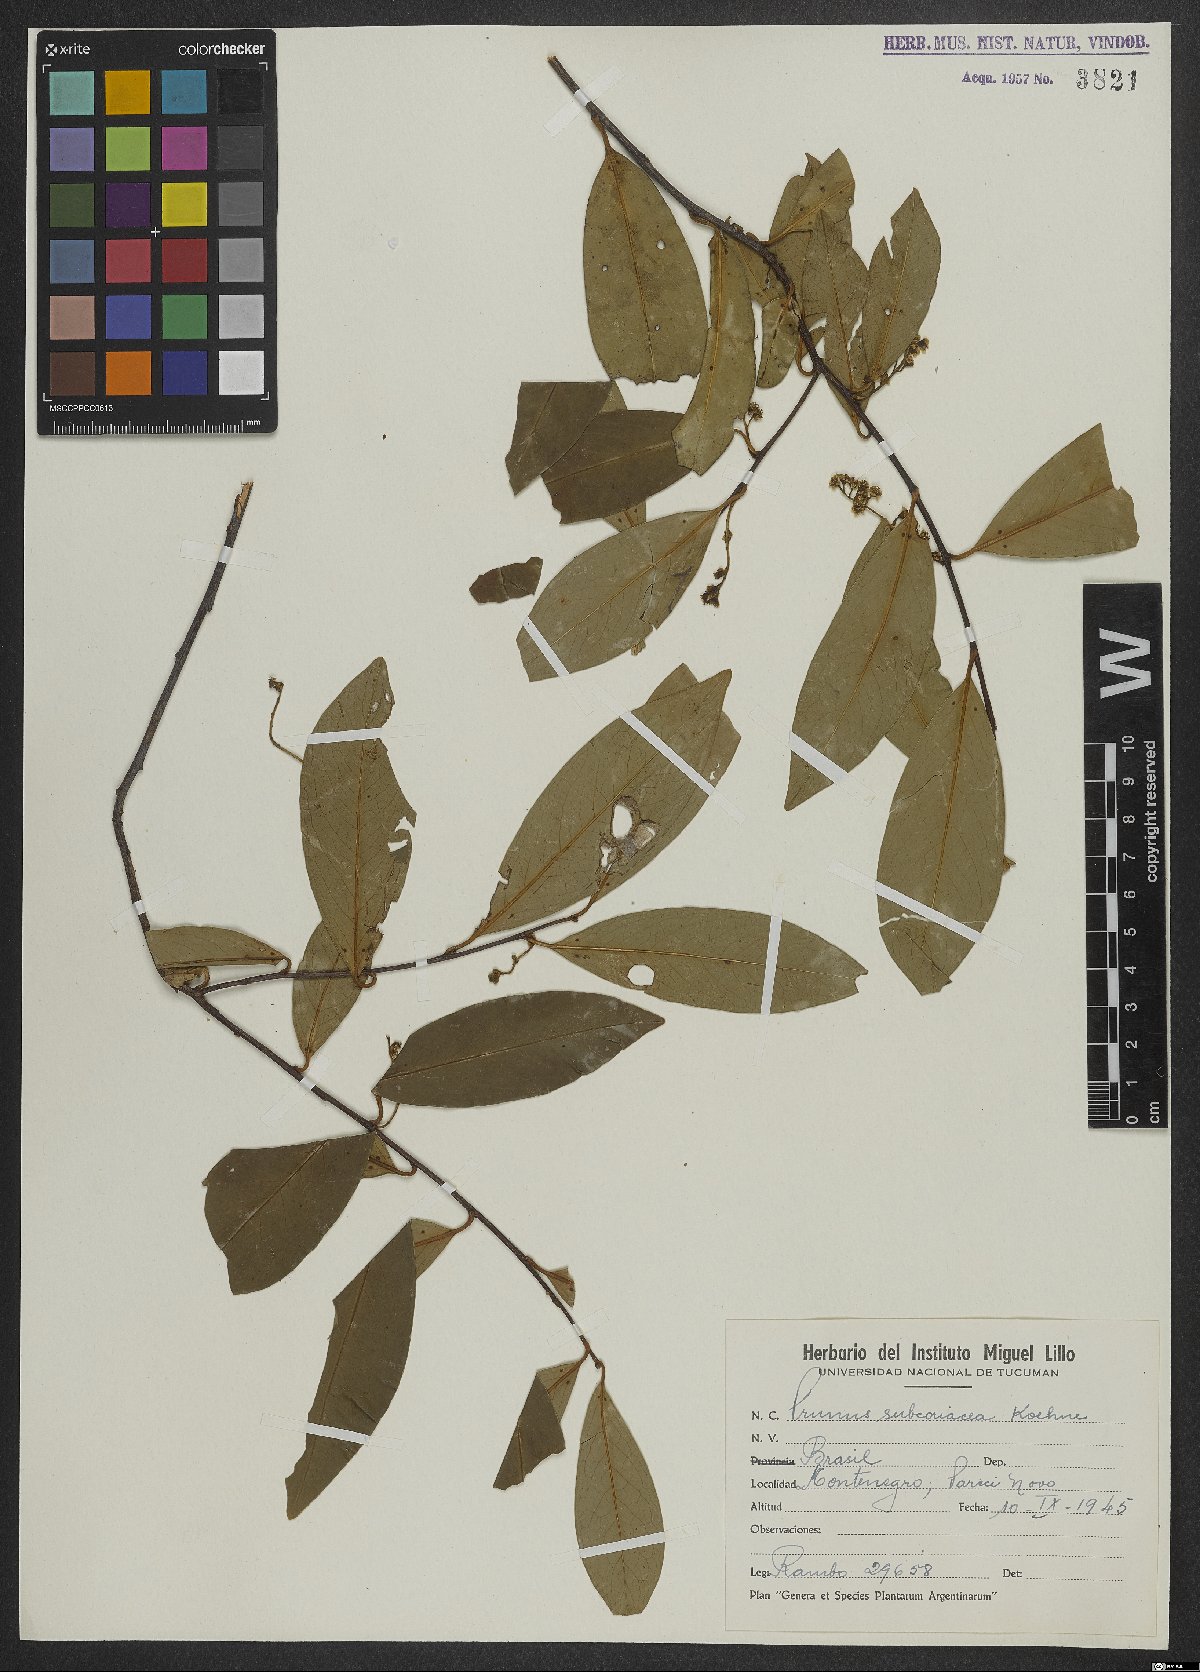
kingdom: Plantae
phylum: Tracheophyta
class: Magnoliopsida
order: Rosales
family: Rosaceae
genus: Prunus
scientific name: Prunus subcoriacea
